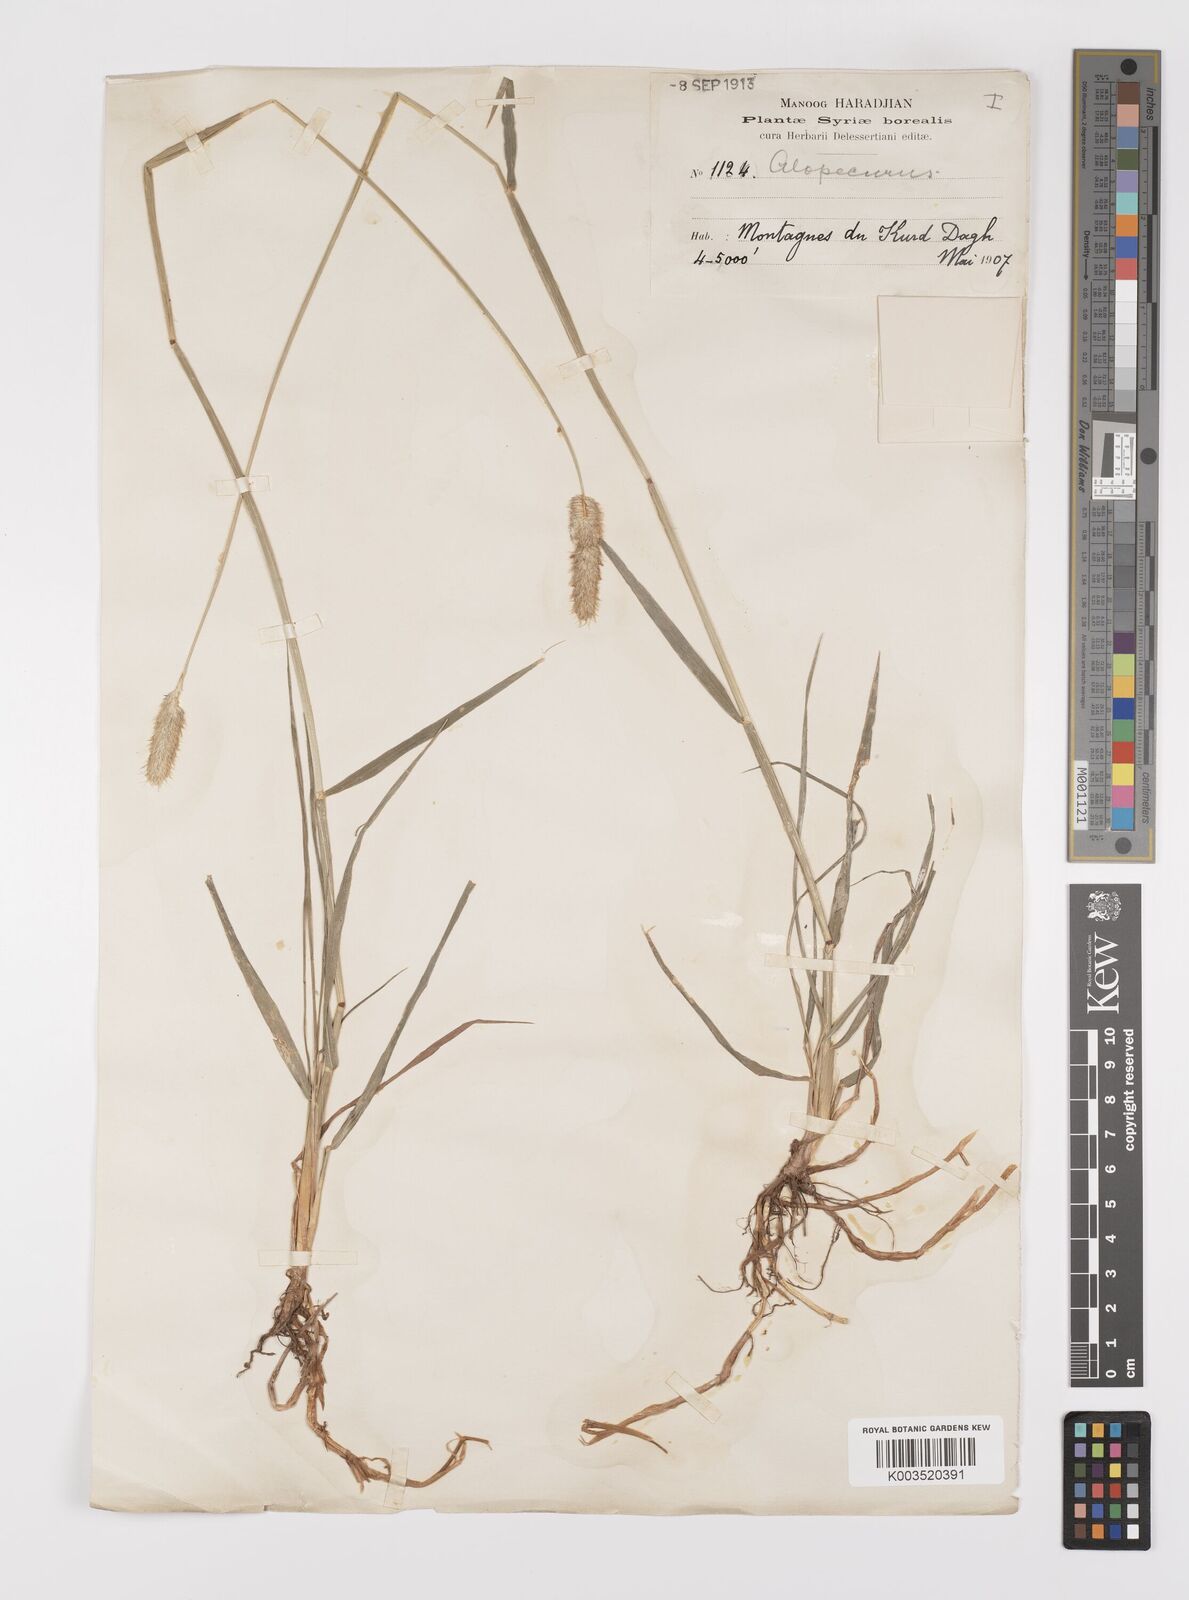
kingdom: Plantae
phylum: Tracheophyta
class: Liliopsida
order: Poales
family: Poaceae
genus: Alopecurus
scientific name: Alopecurus arundinaceus
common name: Creeping meadow foxtail
